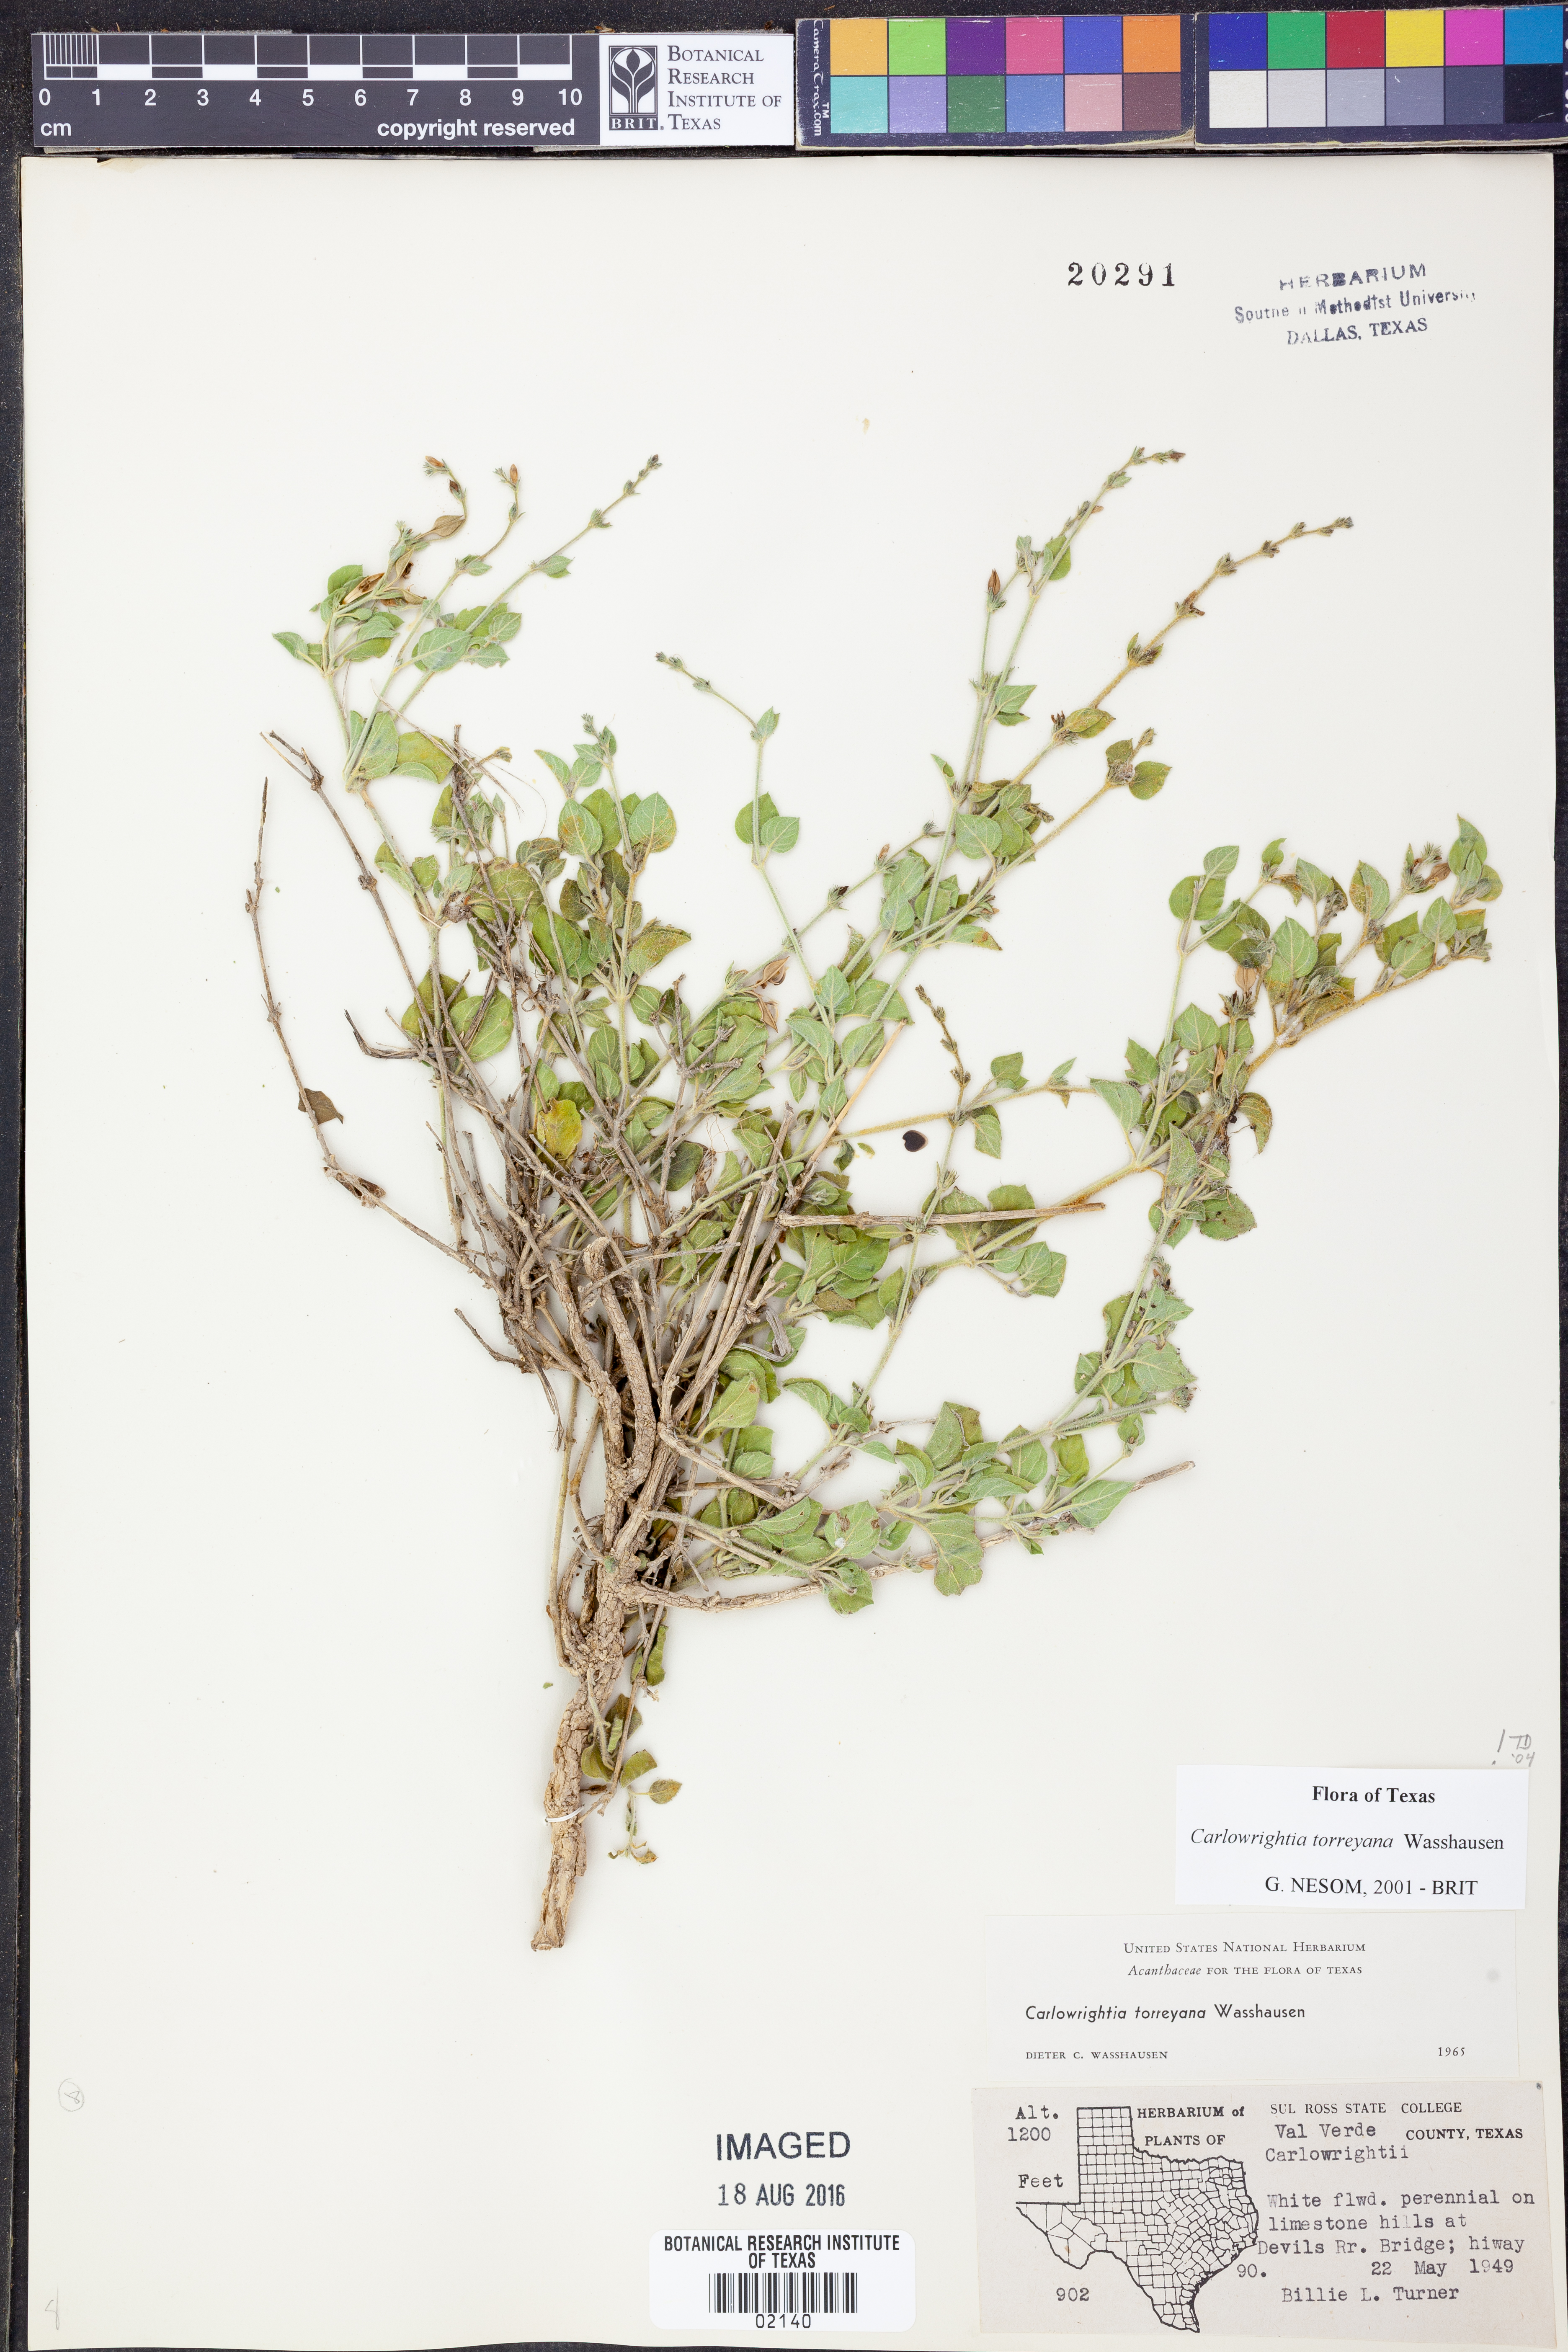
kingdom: Plantae
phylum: Tracheophyta
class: Magnoliopsida
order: Lamiales
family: Acanthaceae
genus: Carlowrightia
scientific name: Carlowrightia torreyana
